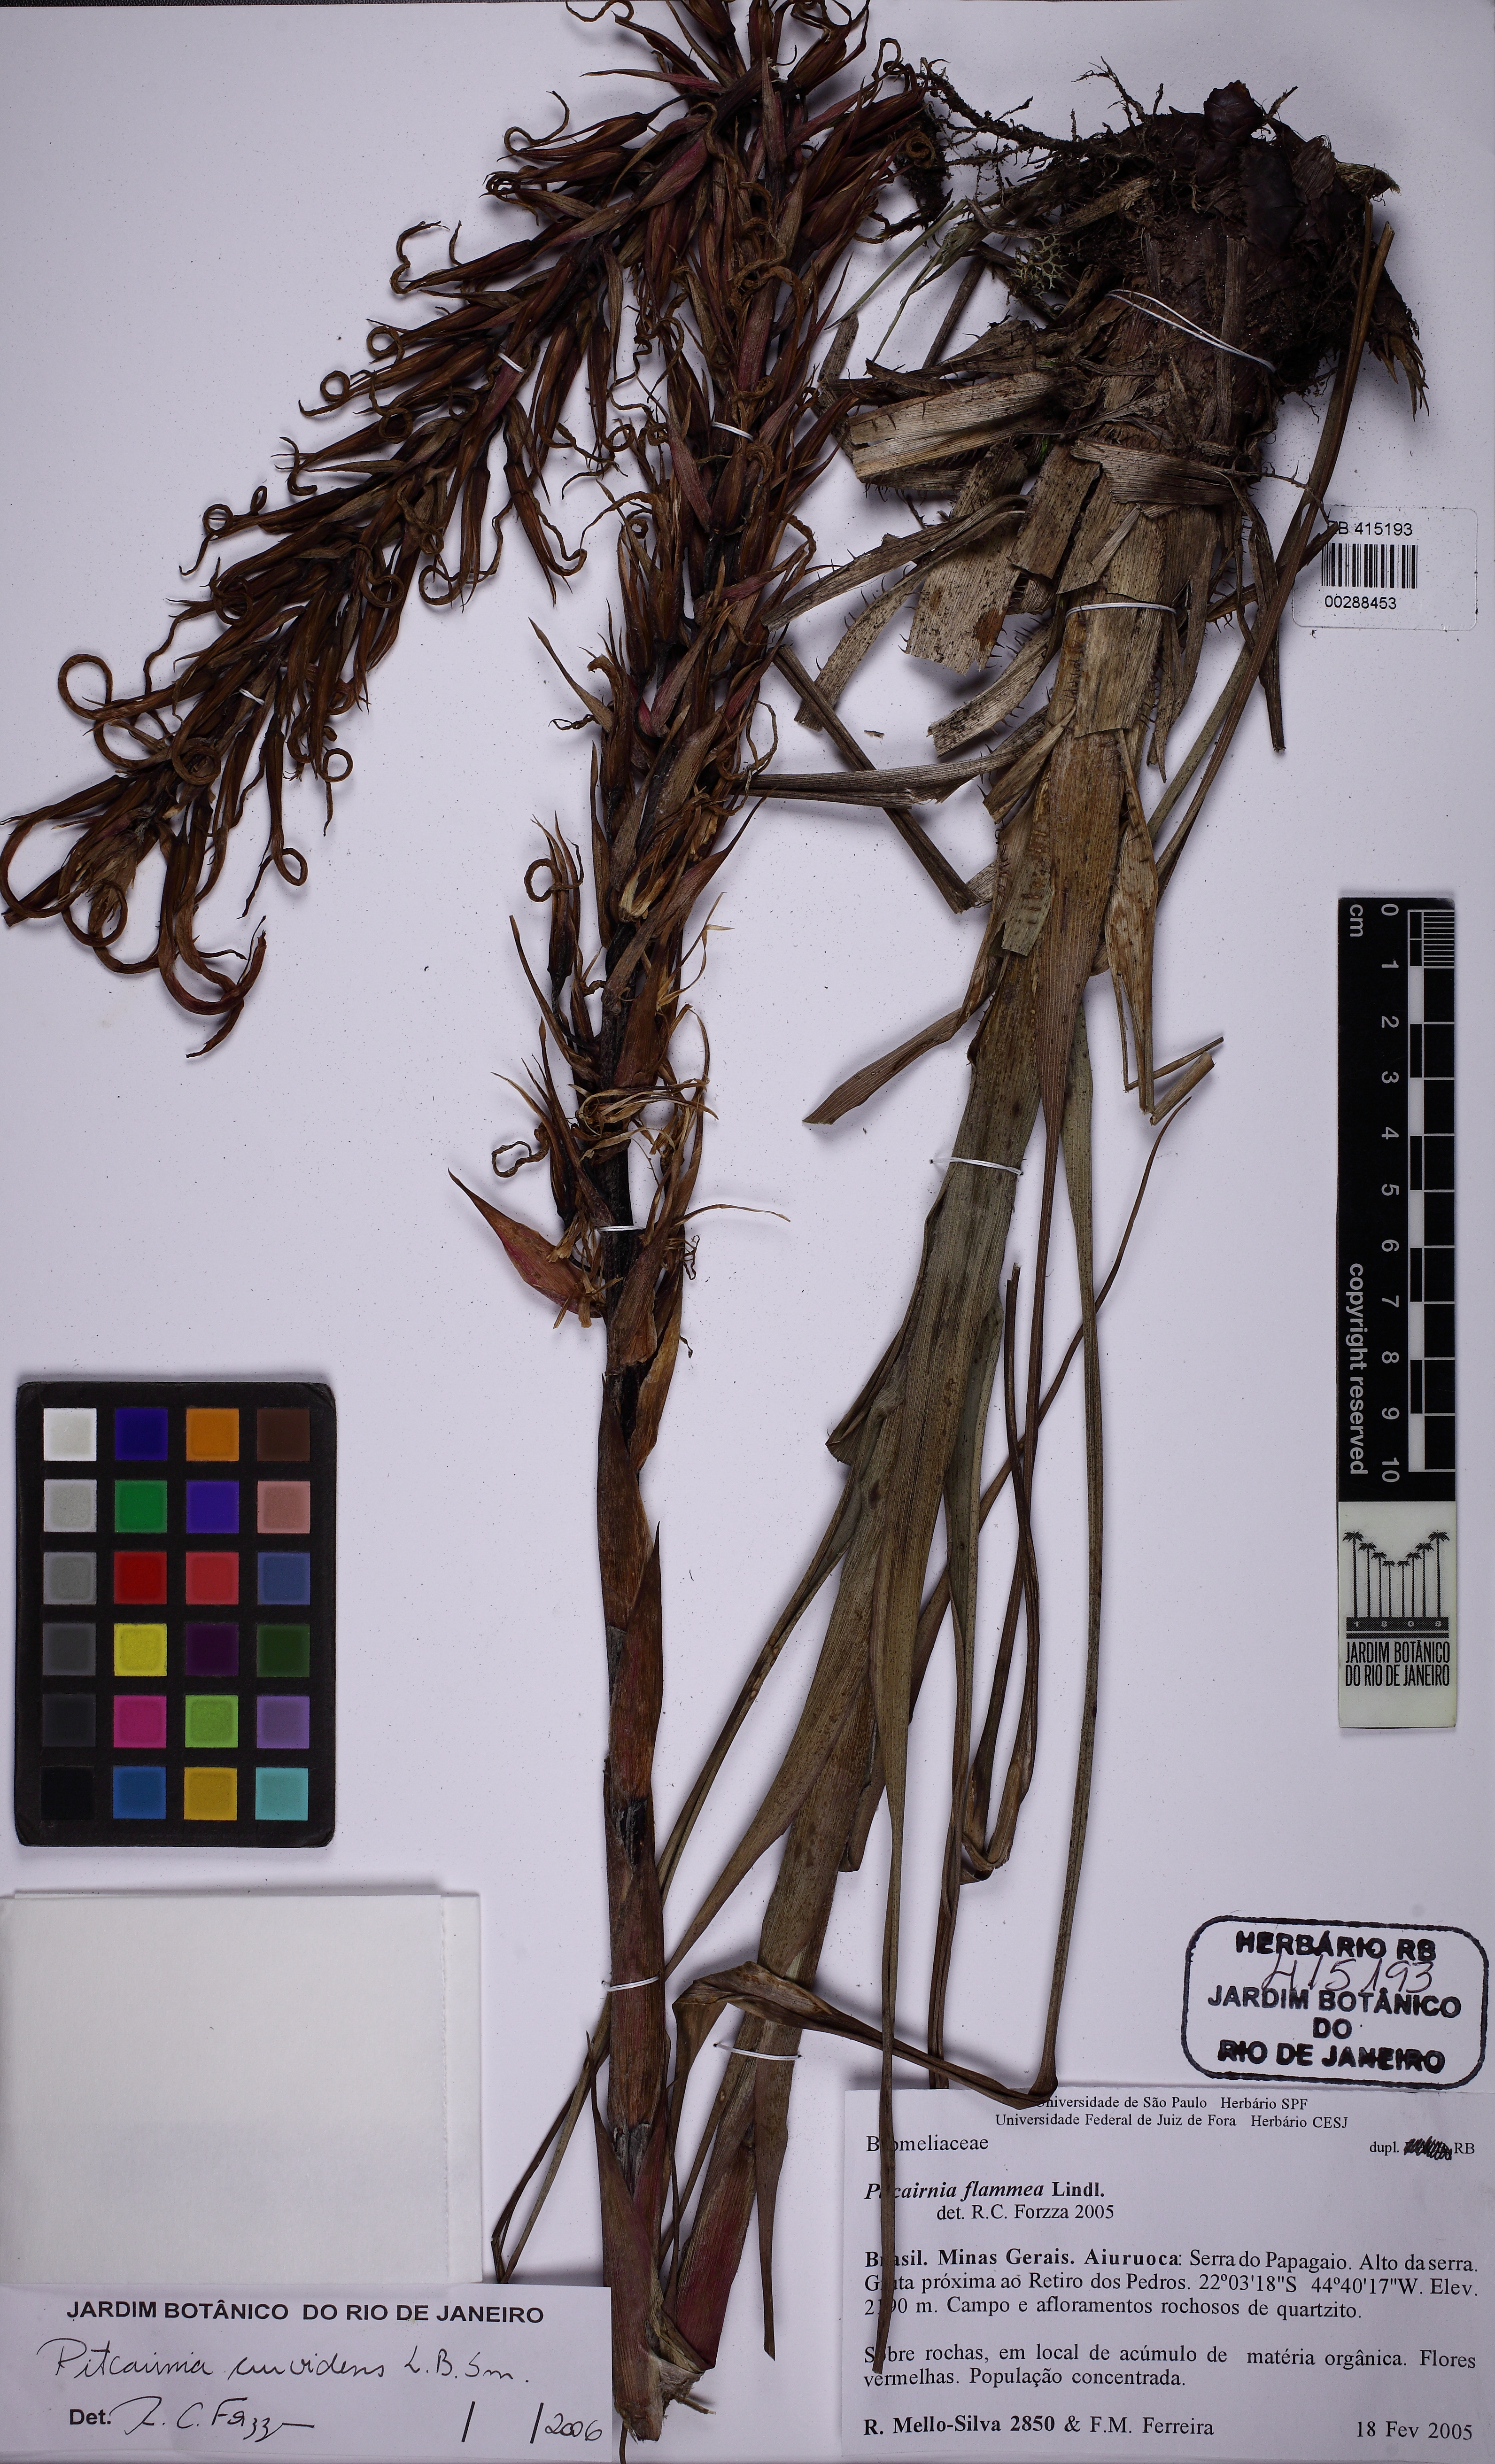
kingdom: Plantae
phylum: Tracheophyta
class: Liliopsida
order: Poales
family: Bromeliaceae
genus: Pitcairnia
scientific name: Pitcairnia curvidens
